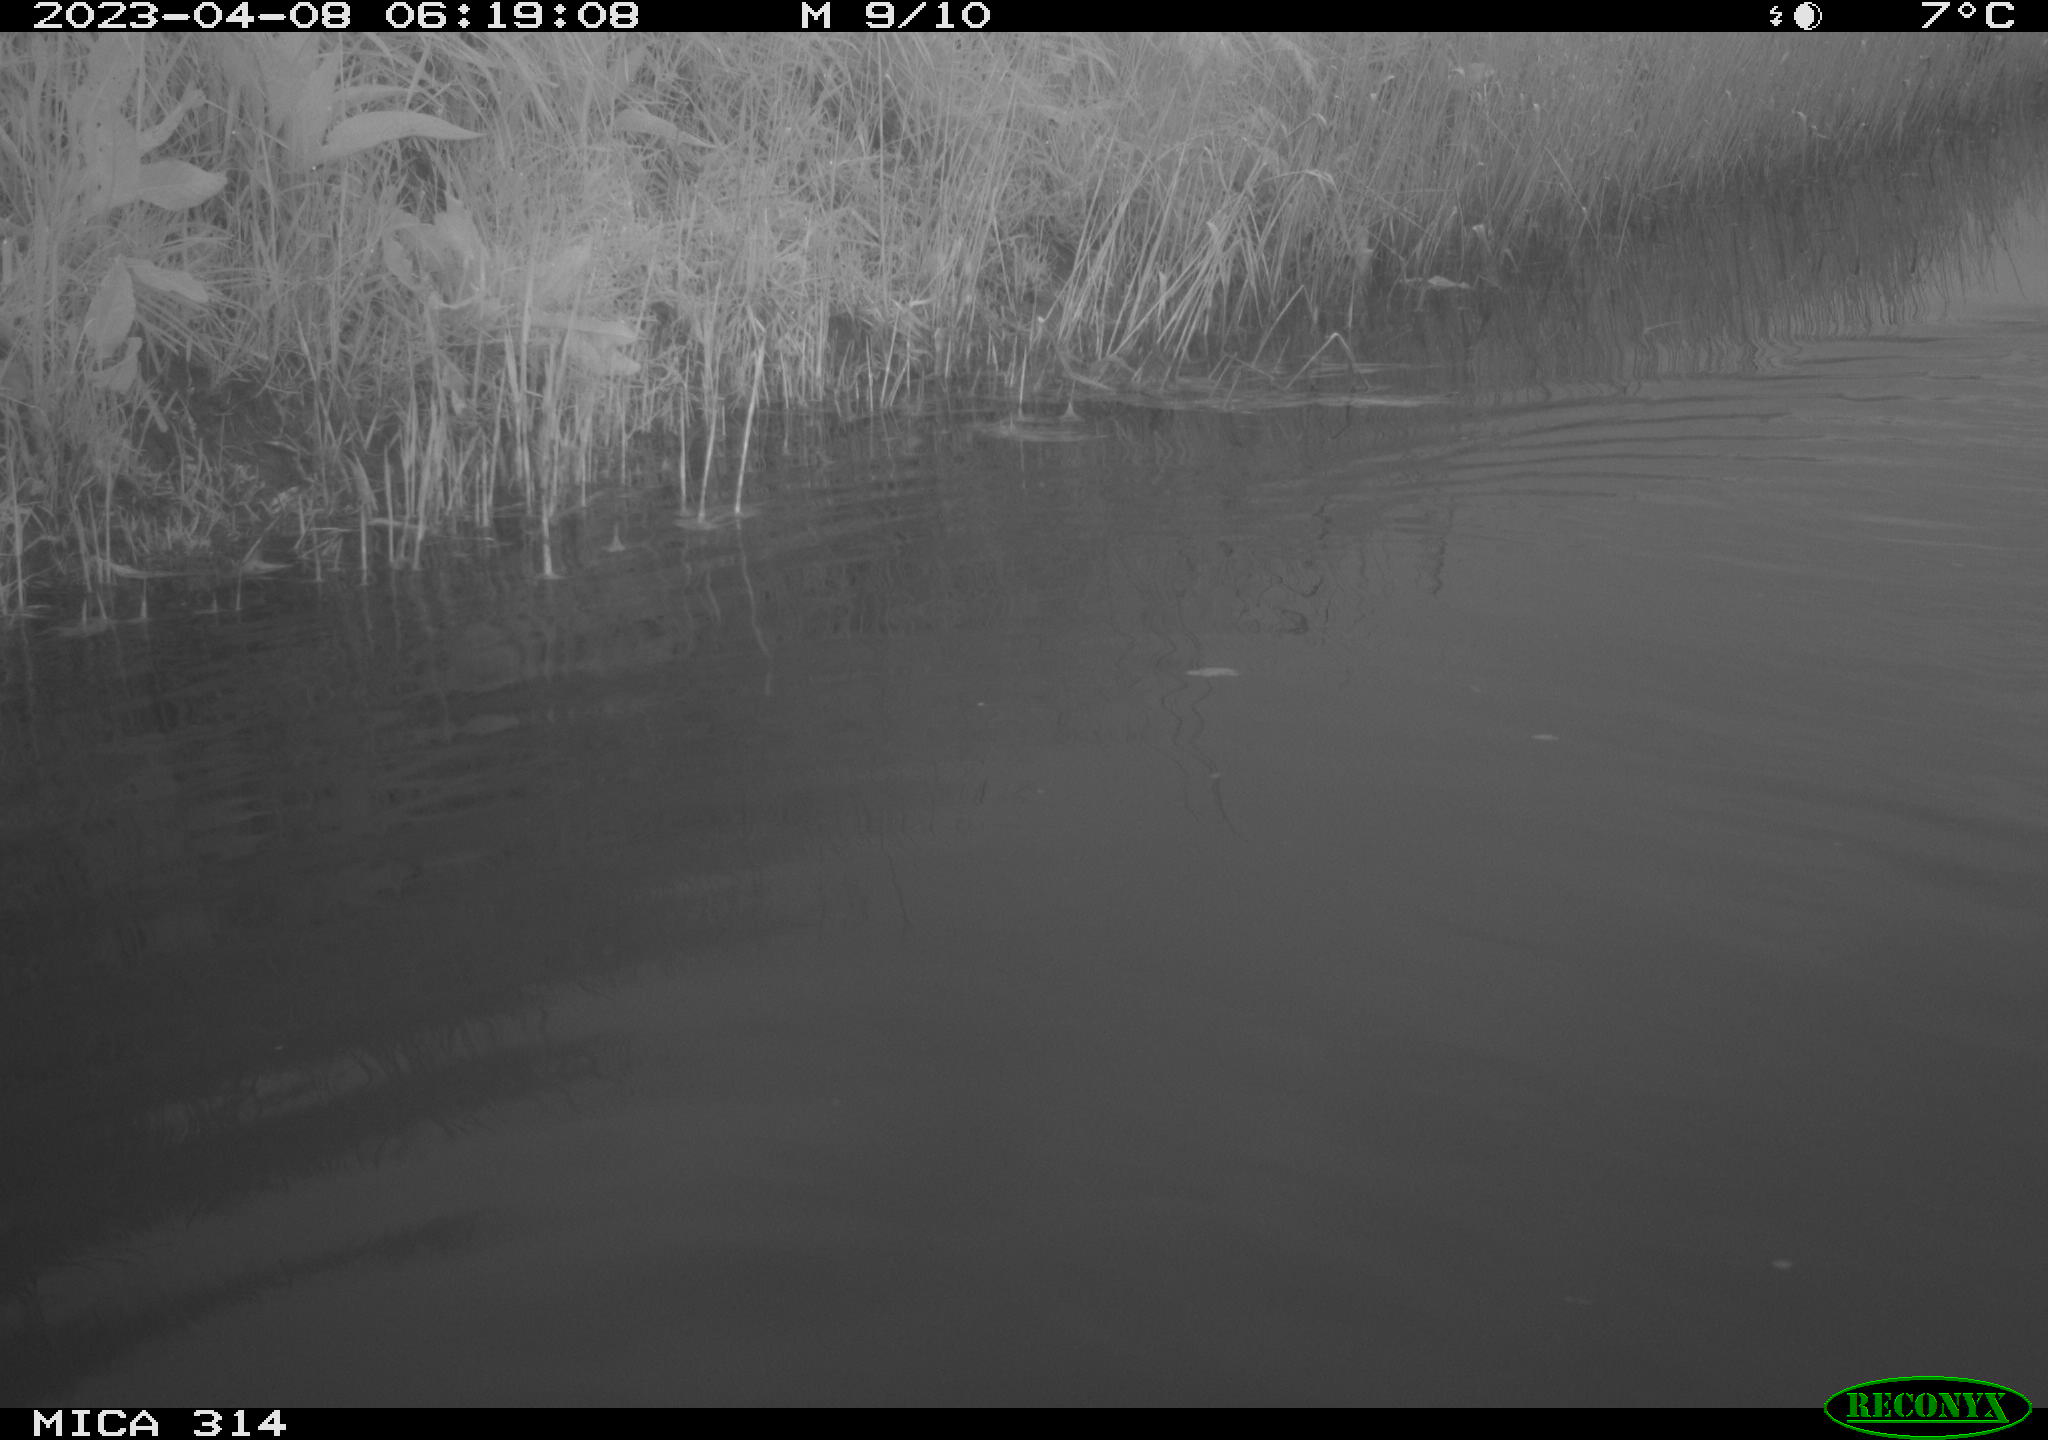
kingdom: Animalia
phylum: Chordata
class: Aves
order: Gruiformes
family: Rallidae
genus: Fulica
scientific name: Fulica atra
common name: Eurasian coot
